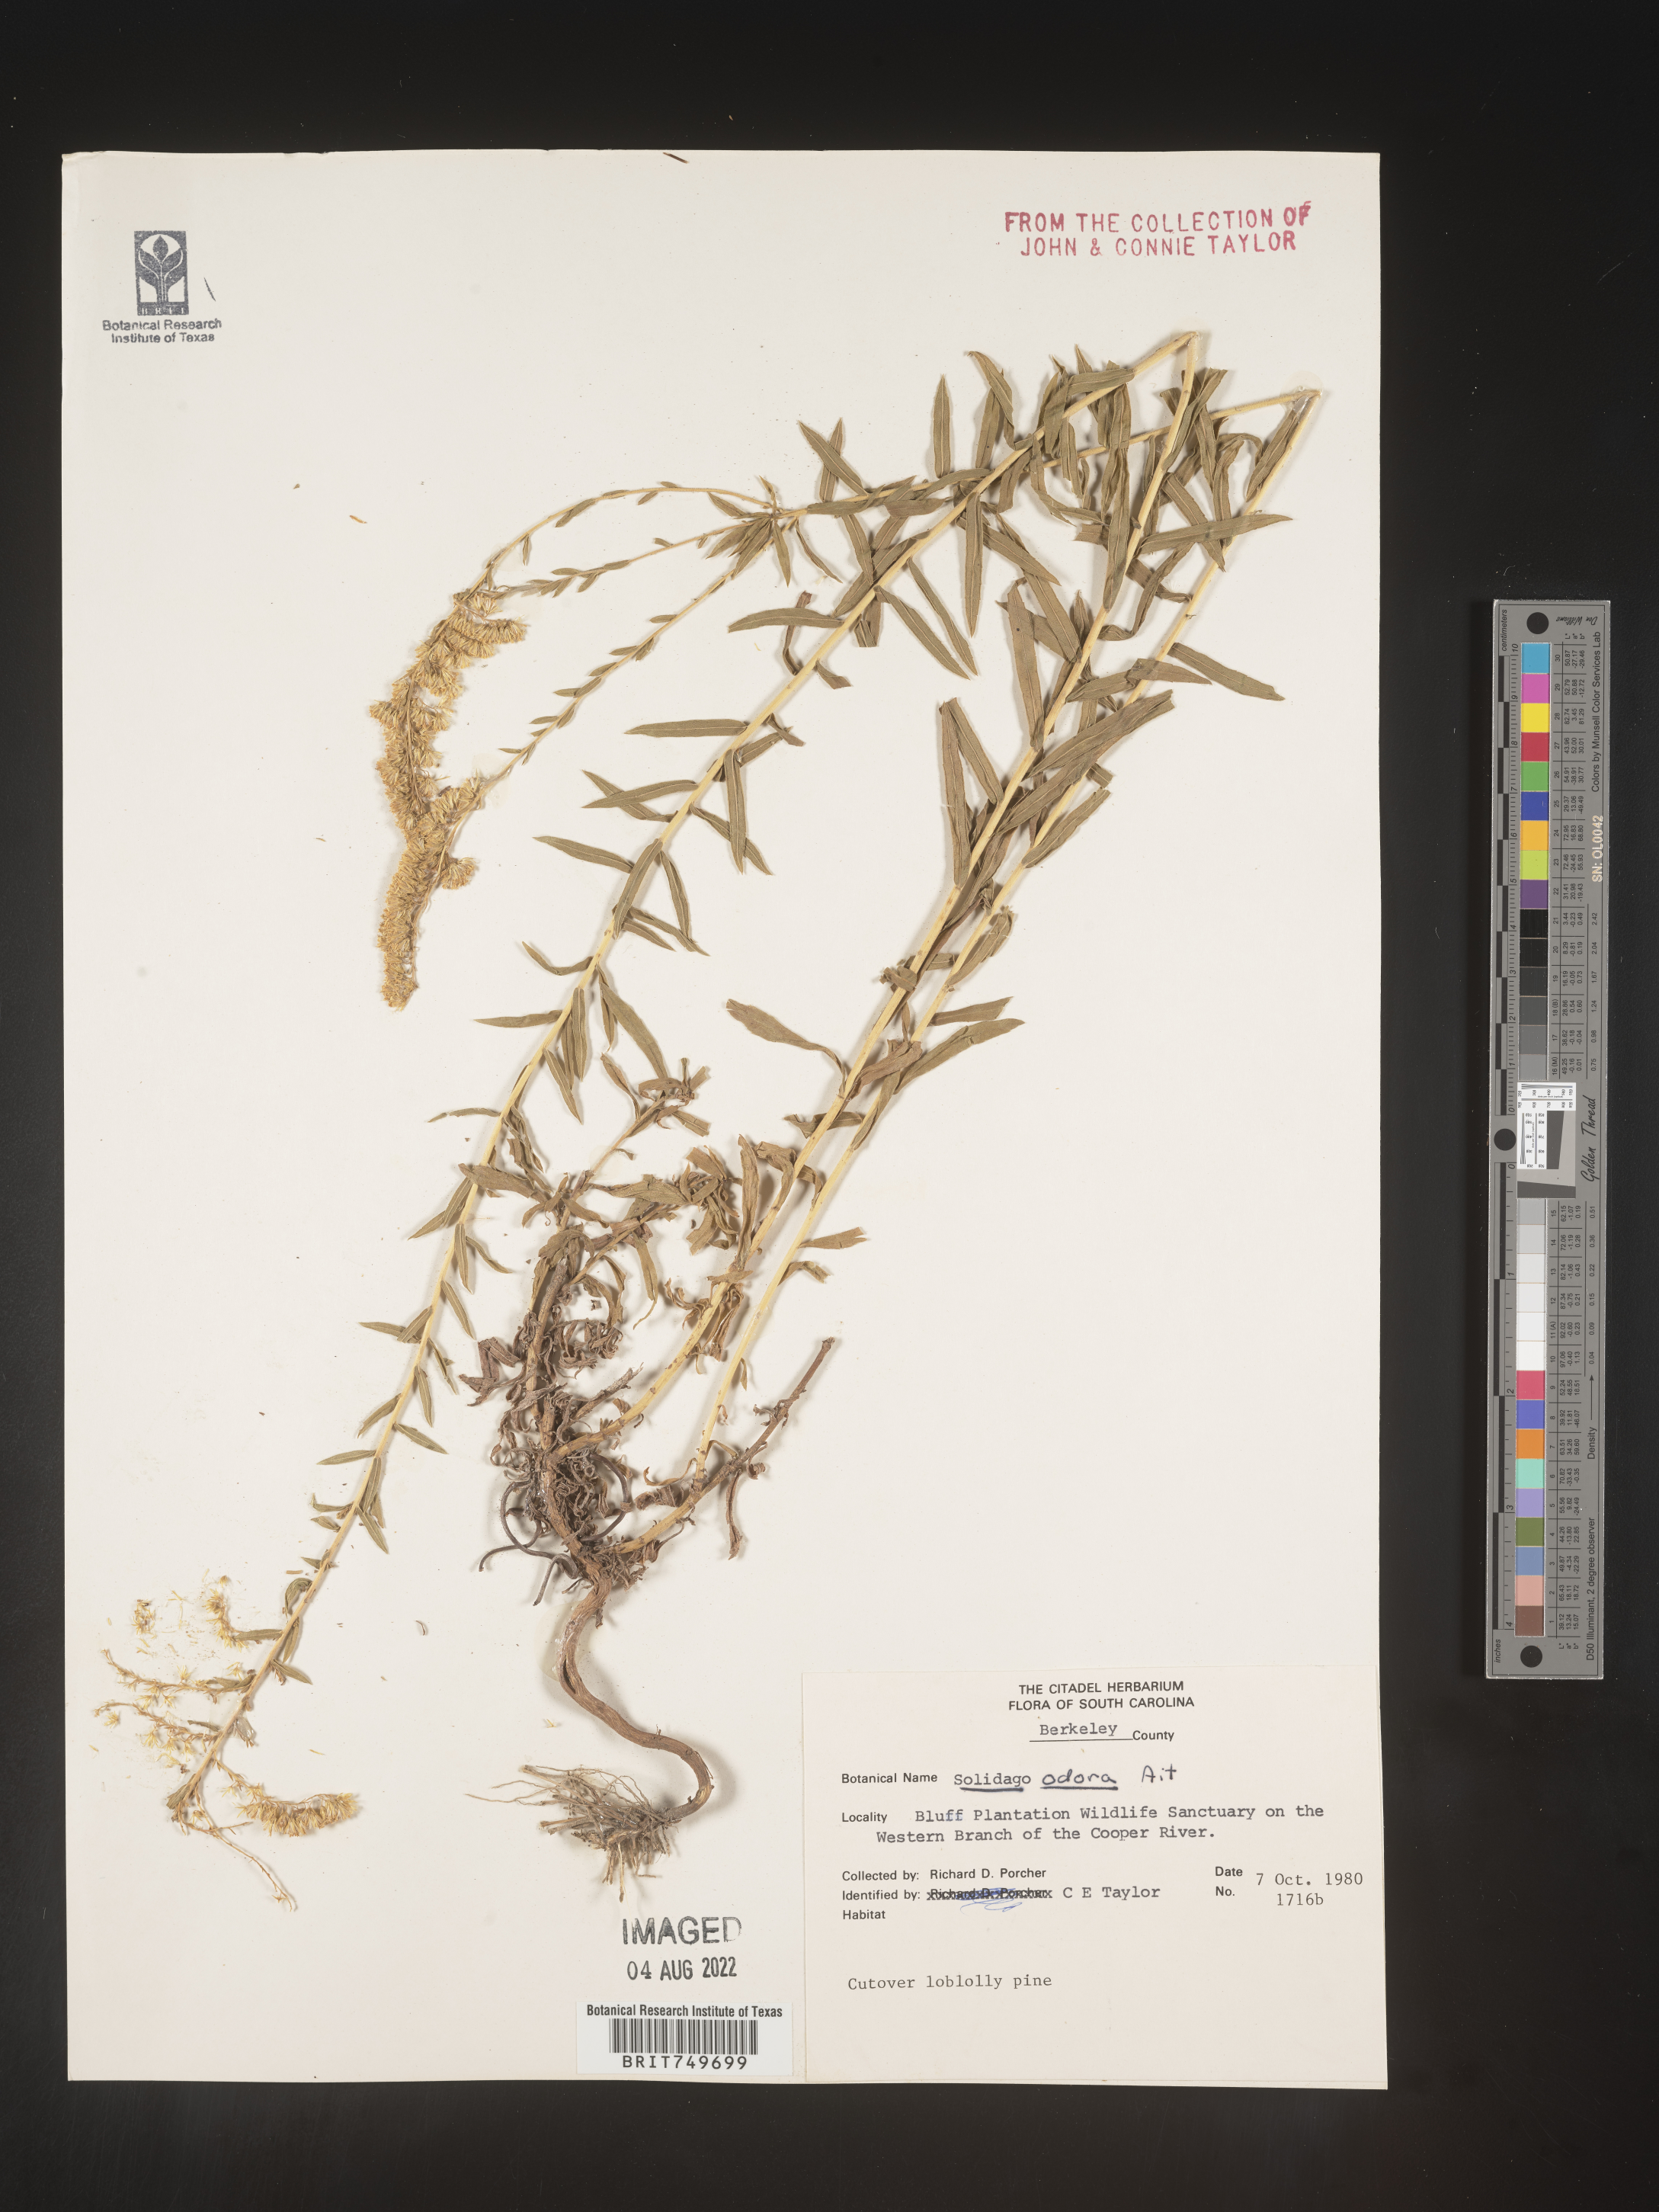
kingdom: Plantae
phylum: Tracheophyta
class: Magnoliopsida
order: Asterales
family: Asteraceae
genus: Solidago
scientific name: Solidago tortifolia
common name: Twisted-leaf goldenrod
